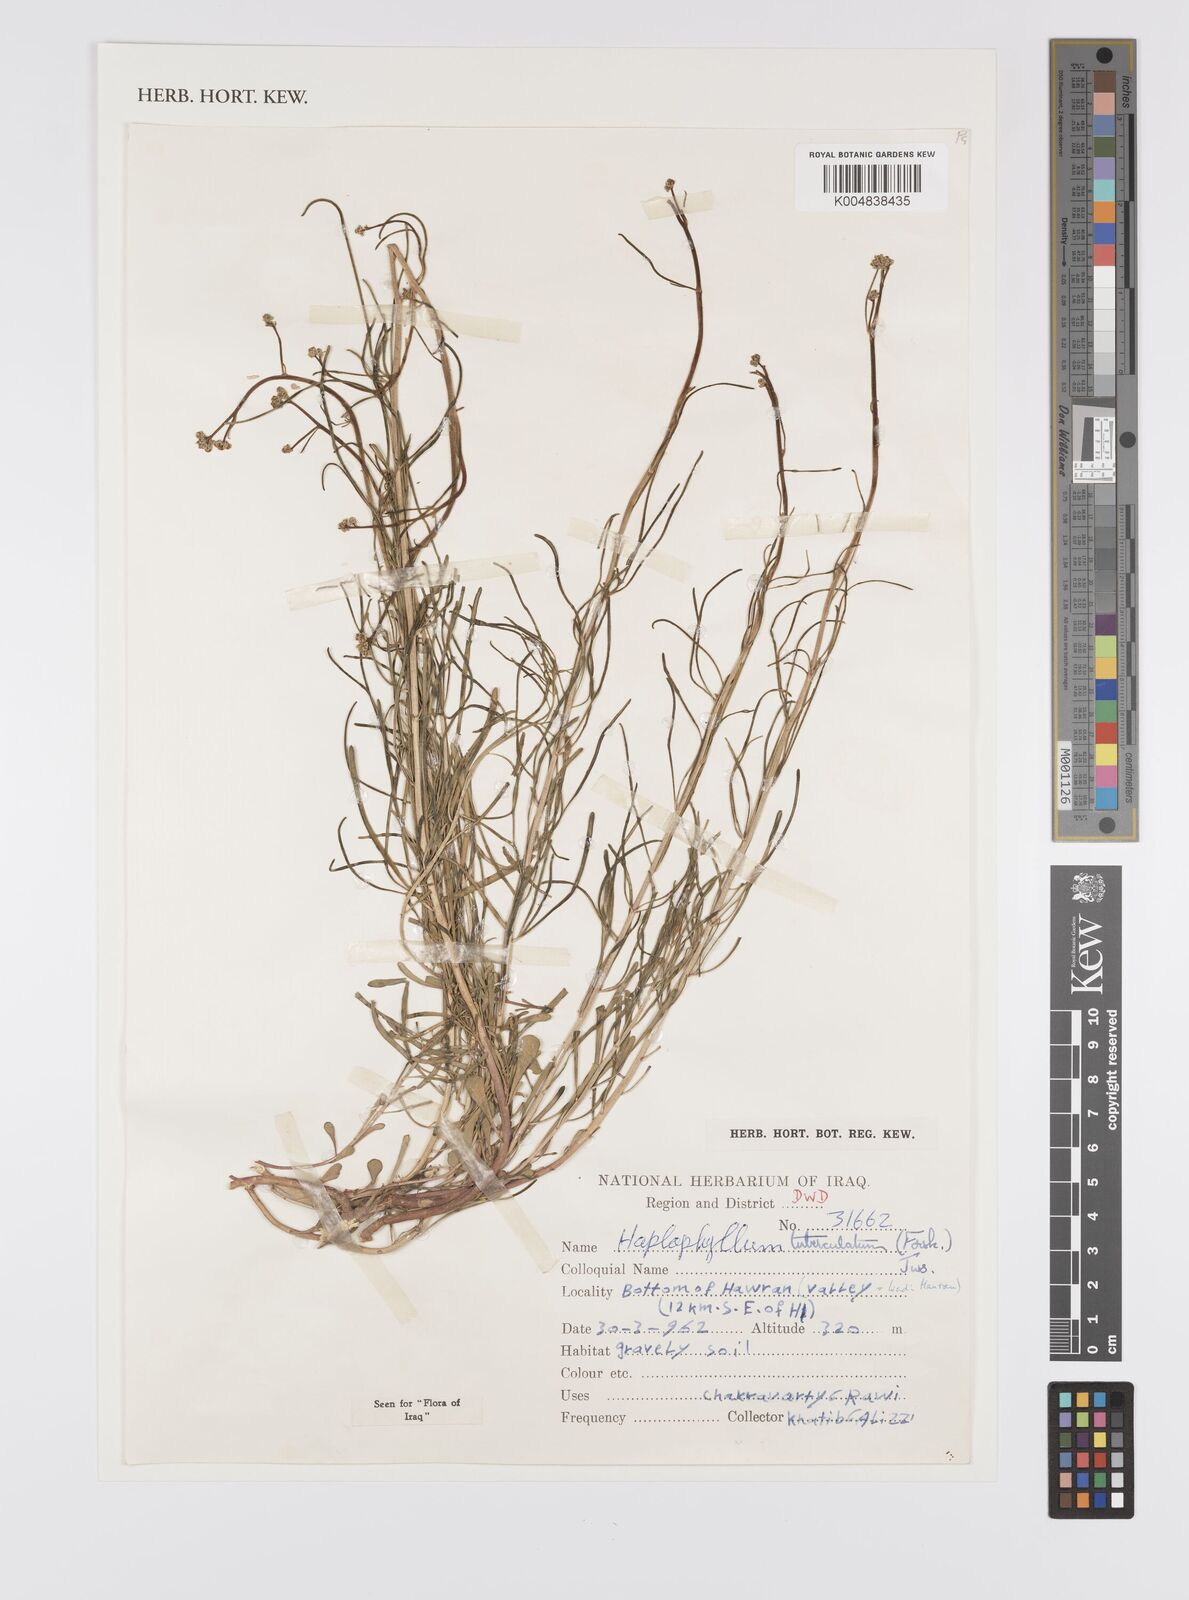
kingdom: Plantae
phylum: Tracheophyta
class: Magnoliopsida
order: Sapindales
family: Rutaceae
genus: Haplophyllum
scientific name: Haplophyllum tuberculatum
